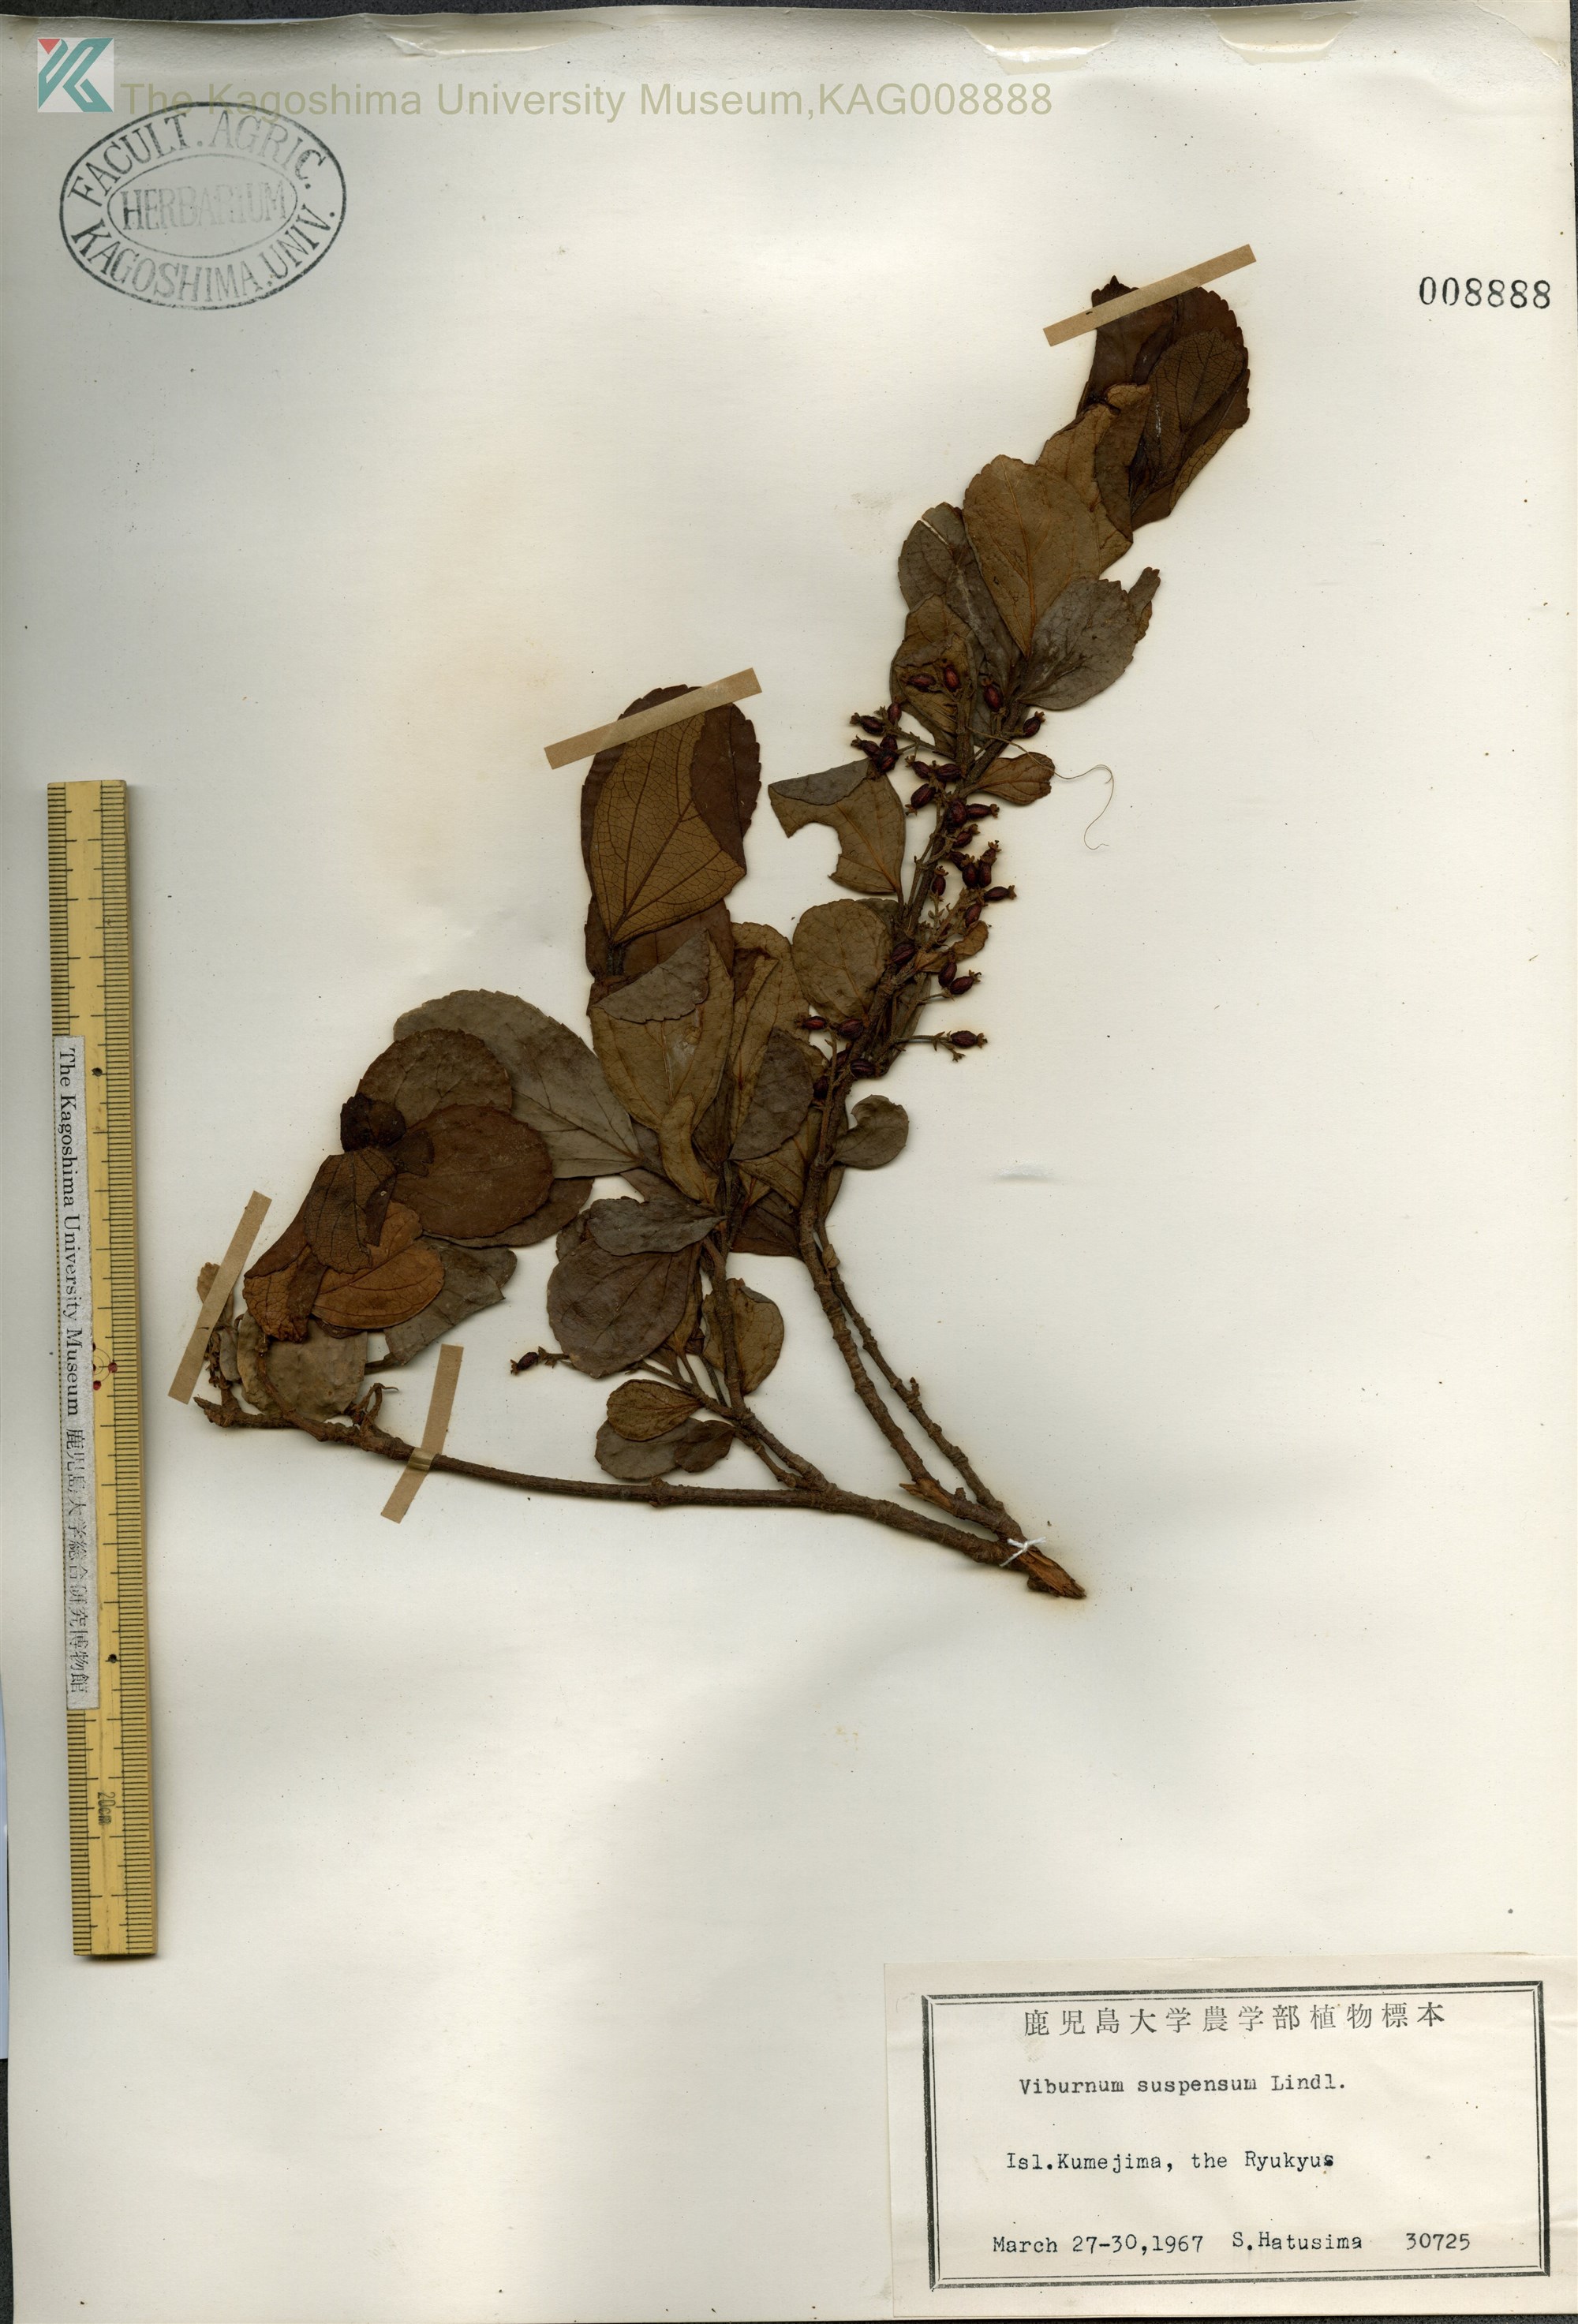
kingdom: Plantae
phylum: Tracheophyta
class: Magnoliopsida
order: Dipsacales
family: Viburnaceae
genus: Viburnum
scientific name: Viburnum suspensum
